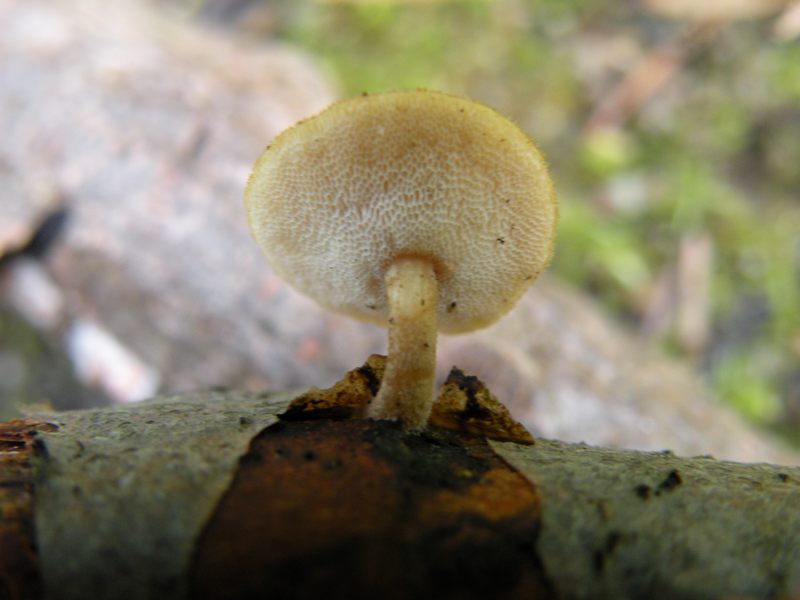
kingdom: Fungi
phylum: Basidiomycota
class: Agaricomycetes
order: Polyporales
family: Polyporaceae
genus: Lentinus
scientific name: Lentinus brumalis
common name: vinter-stilkporesvamp
